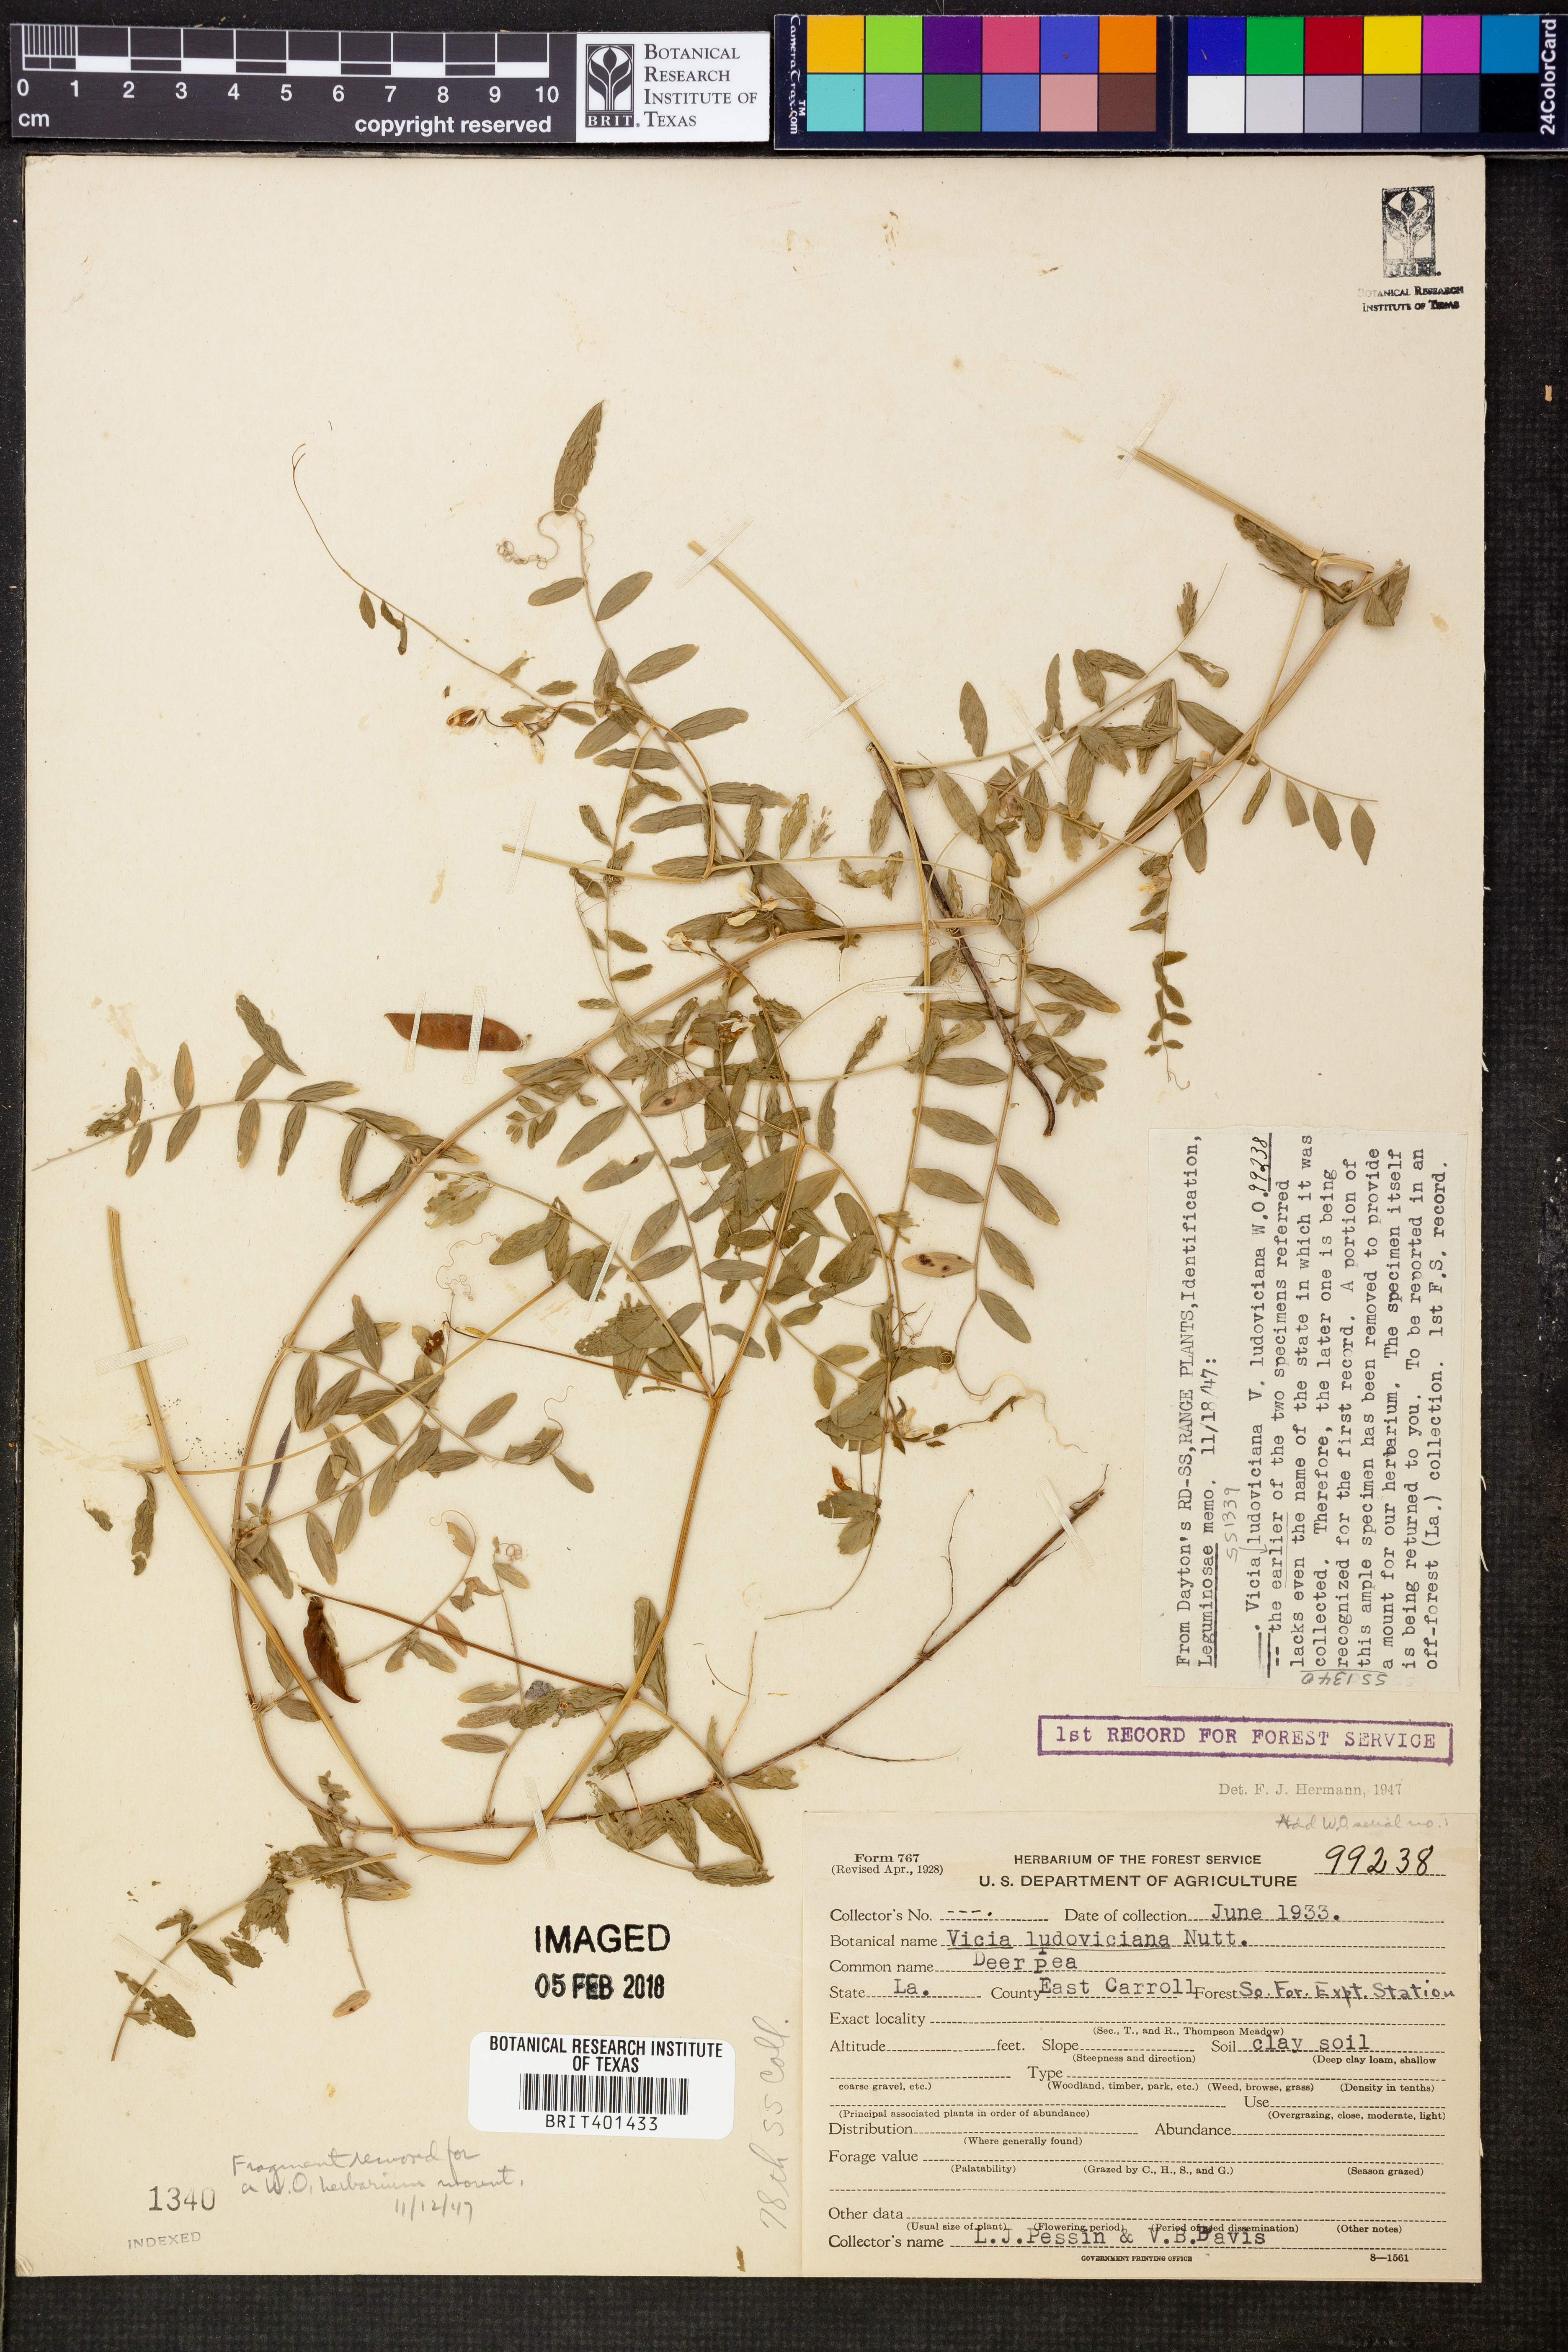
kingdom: Plantae
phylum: Tracheophyta
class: Magnoliopsida
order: Fabales
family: Fabaceae
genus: Vicia
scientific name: Vicia ludoviciana
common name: Louisiana vetch
